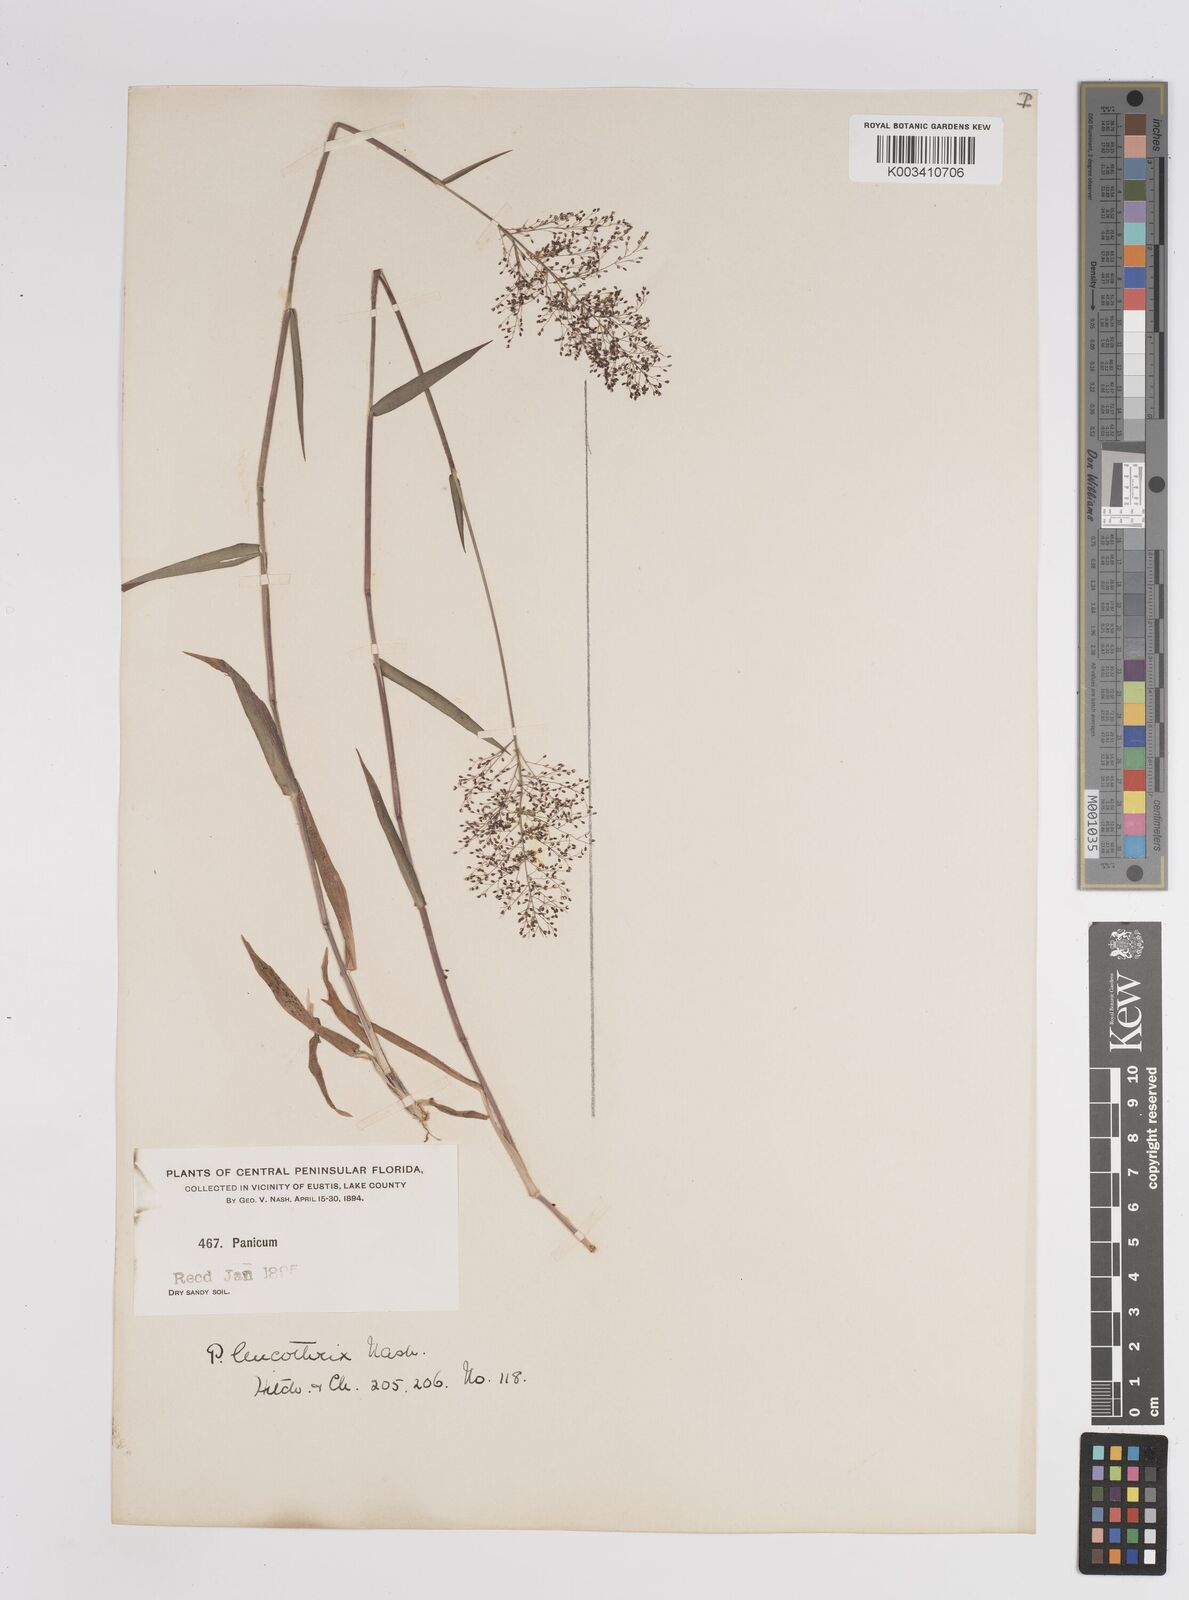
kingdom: Plantae
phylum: Tracheophyta
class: Liliopsida
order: Poales
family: Poaceae
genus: Dichanthelium
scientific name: Dichanthelium leucothrix
